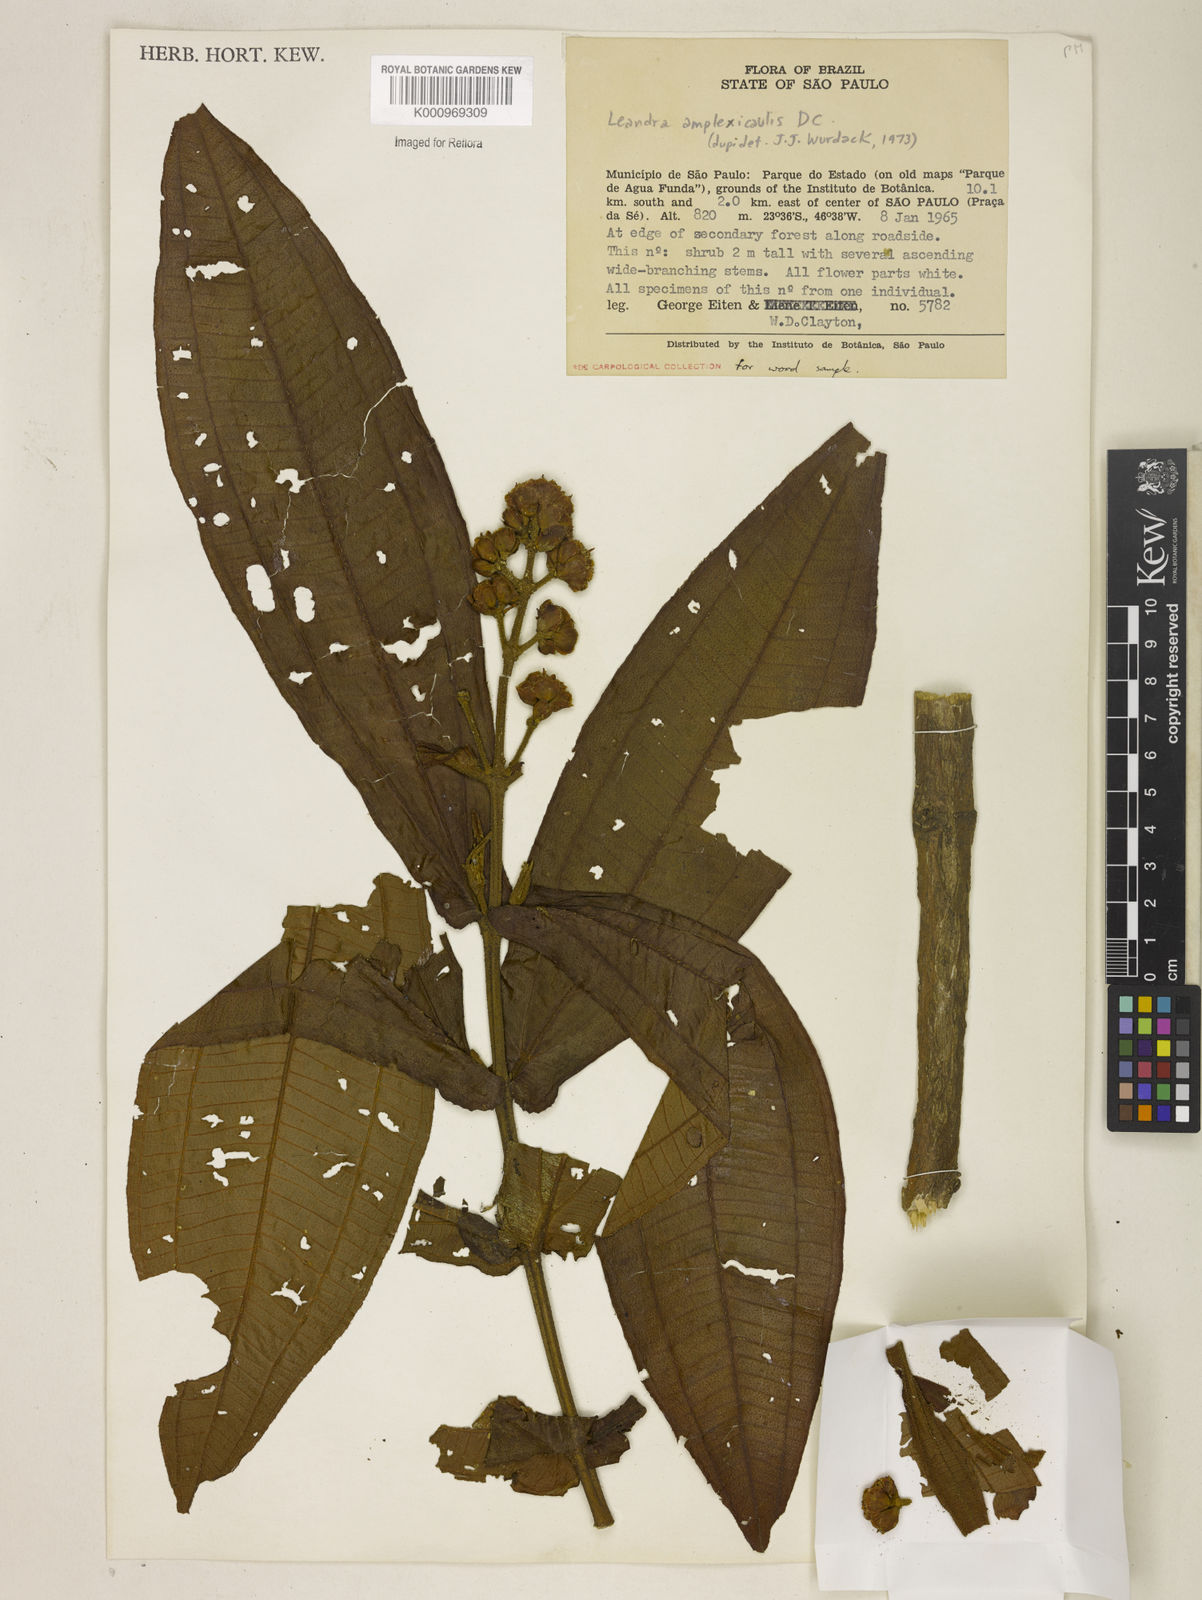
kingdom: Plantae
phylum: Tracheophyta
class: Magnoliopsida
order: Myrtales
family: Melastomataceae
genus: Miconia
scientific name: Miconia pectinata
